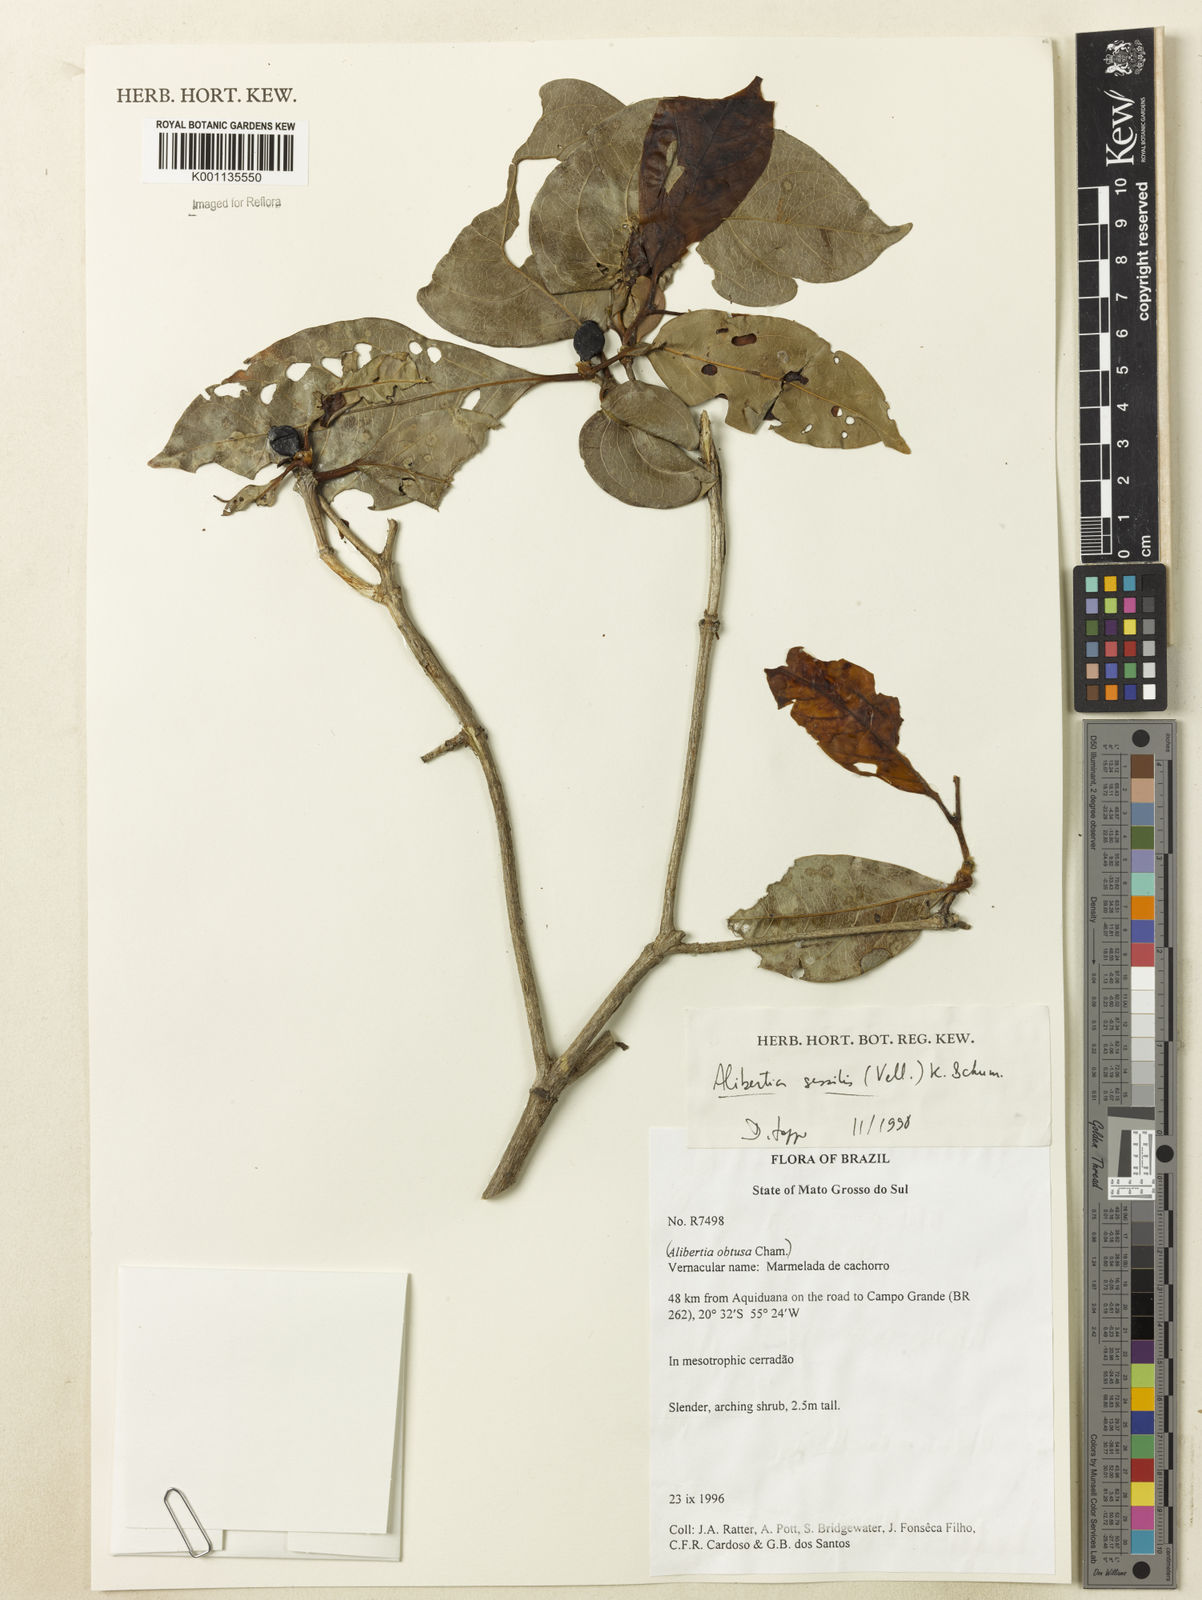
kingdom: Plantae
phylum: Tracheophyta
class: Magnoliopsida
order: Gentianales
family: Rubiaceae
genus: Cordiera
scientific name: Cordiera sessilis
